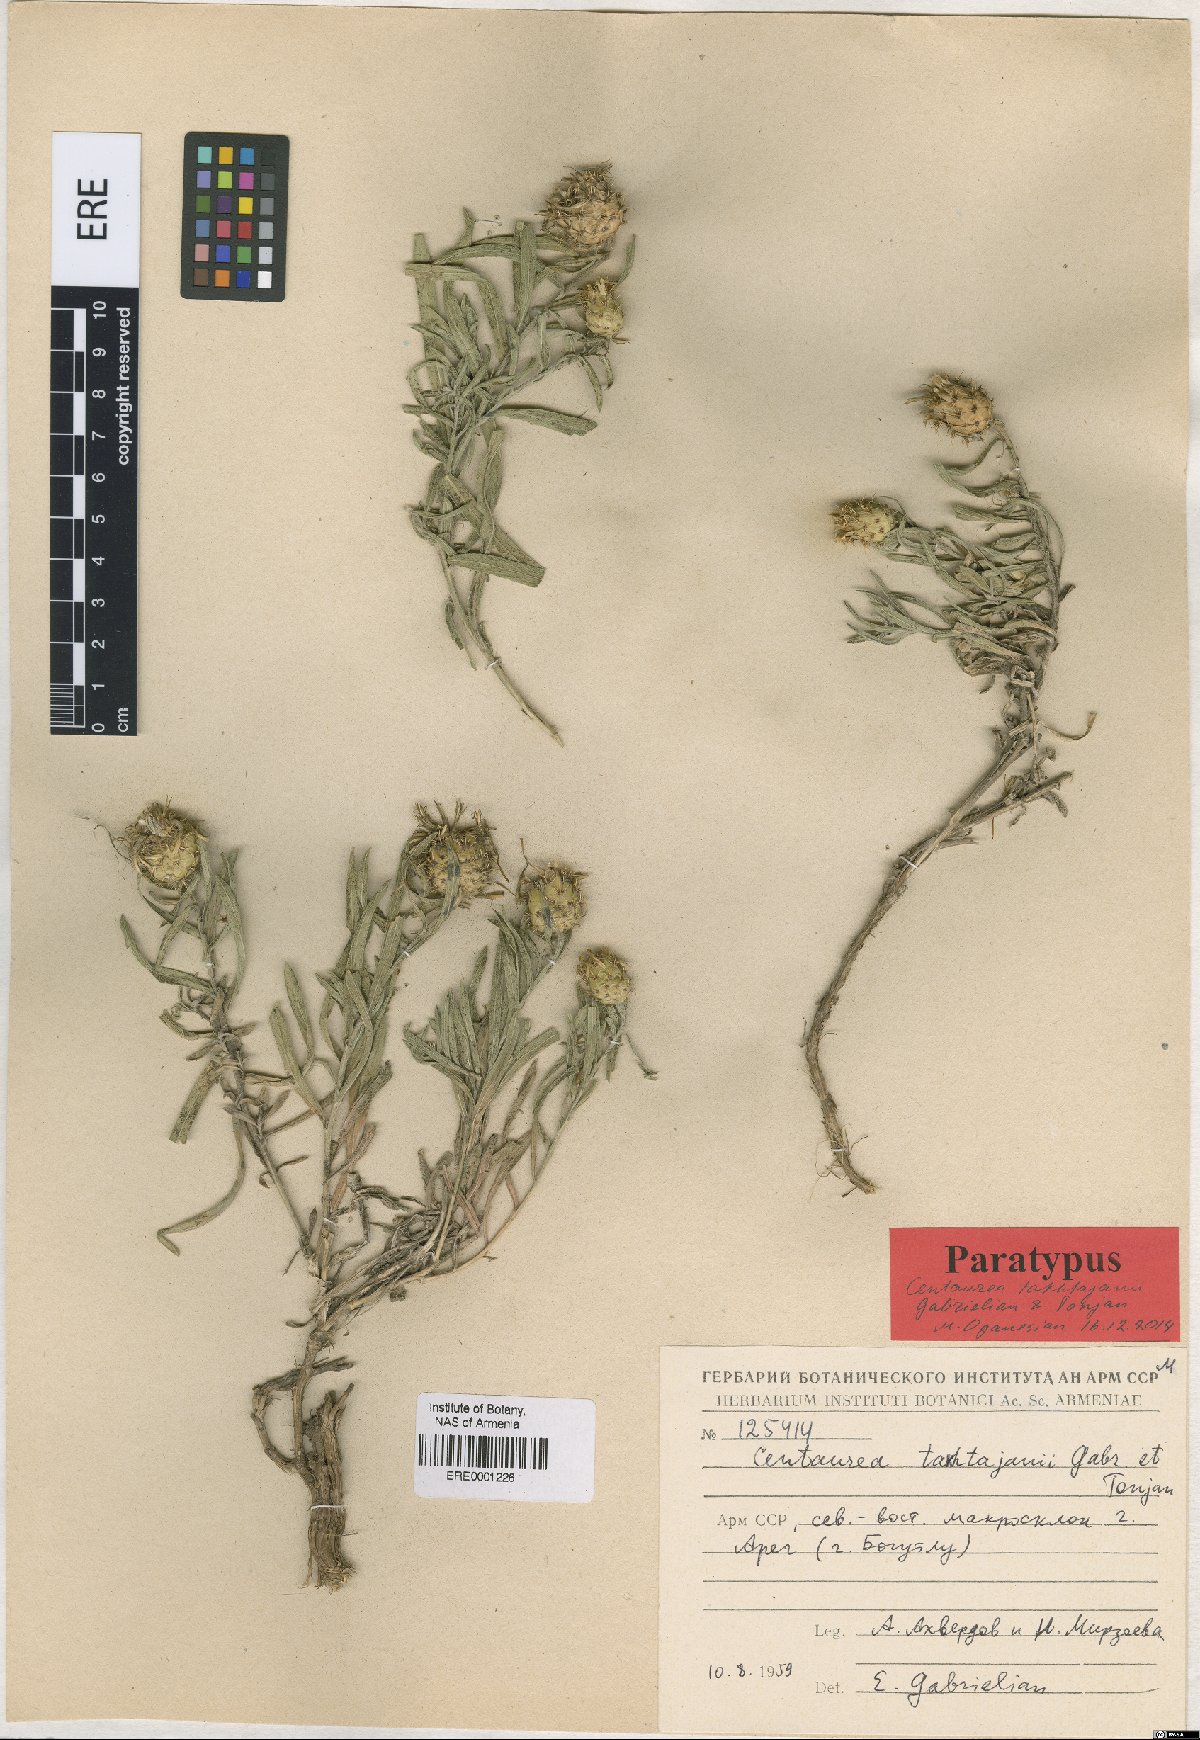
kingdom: Plantae
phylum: Tracheophyta
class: Magnoliopsida
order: Asterales
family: Asteraceae
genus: Centaurea
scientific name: Centaurea takhtajanii
